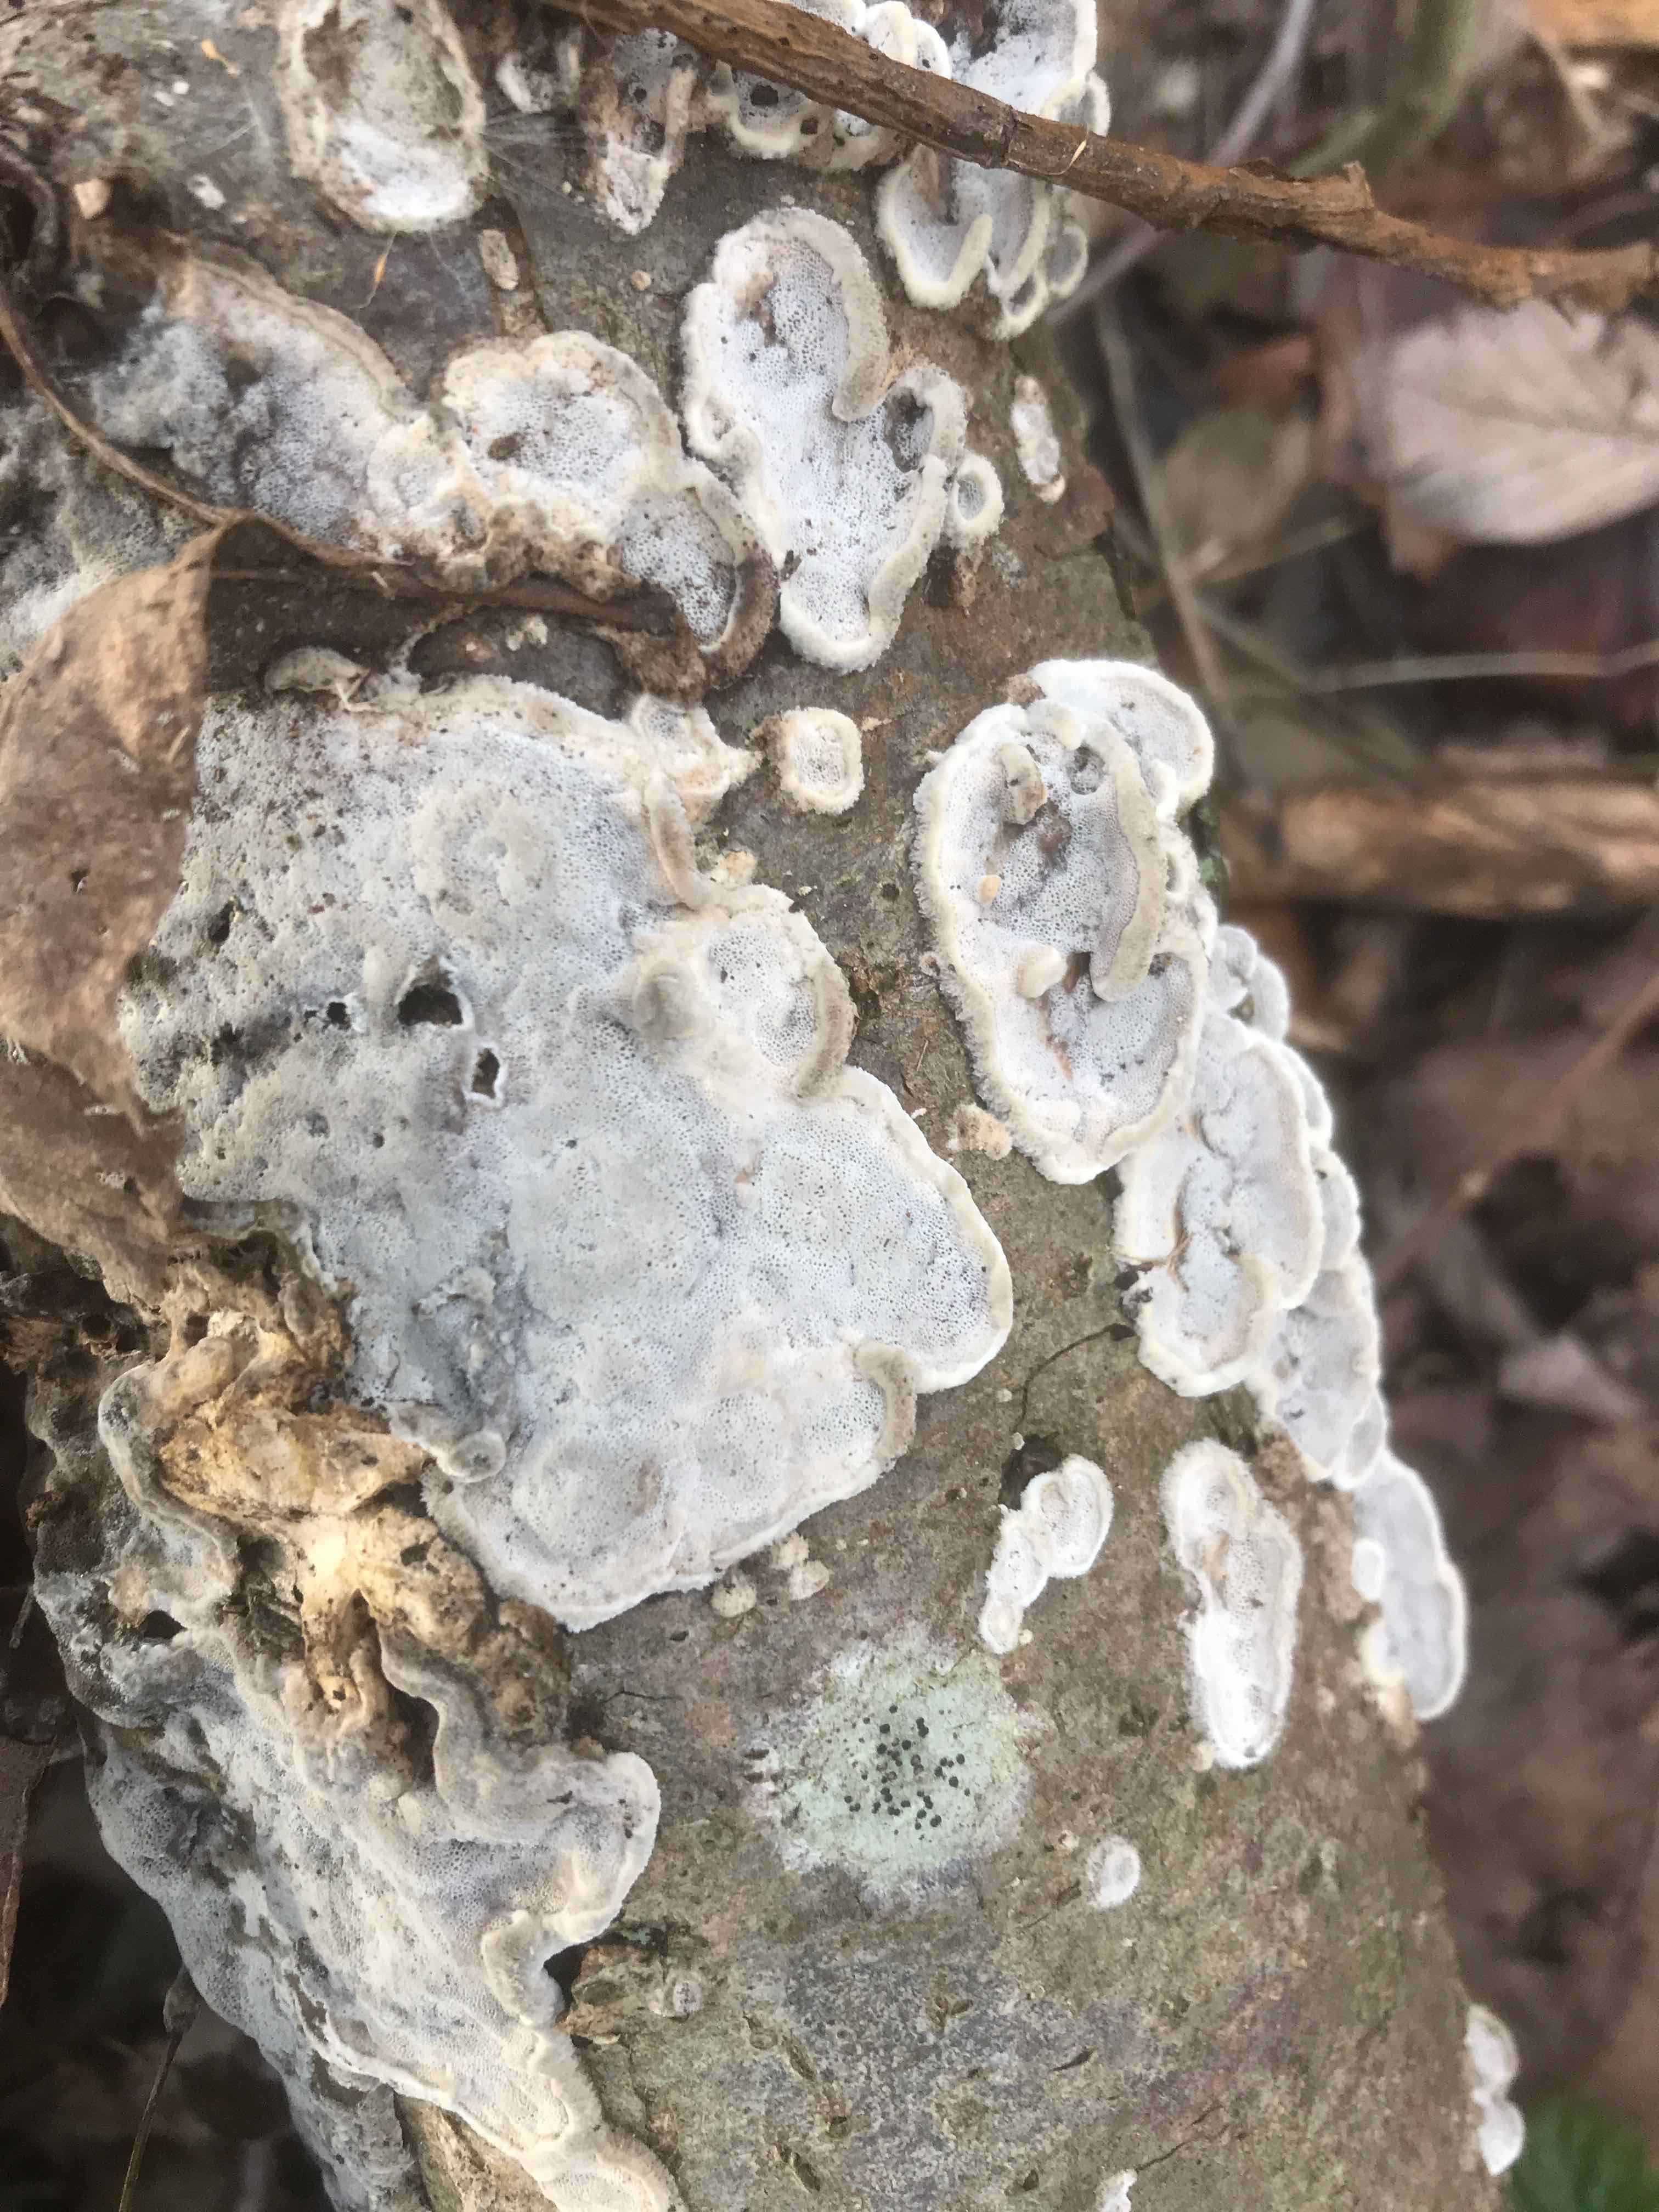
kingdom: Fungi
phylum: Basidiomycota
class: Agaricomycetes
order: Polyporales
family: Phanerochaetaceae
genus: Bjerkandera
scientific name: Bjerkandera adusta
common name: sveden sodporesvamp
